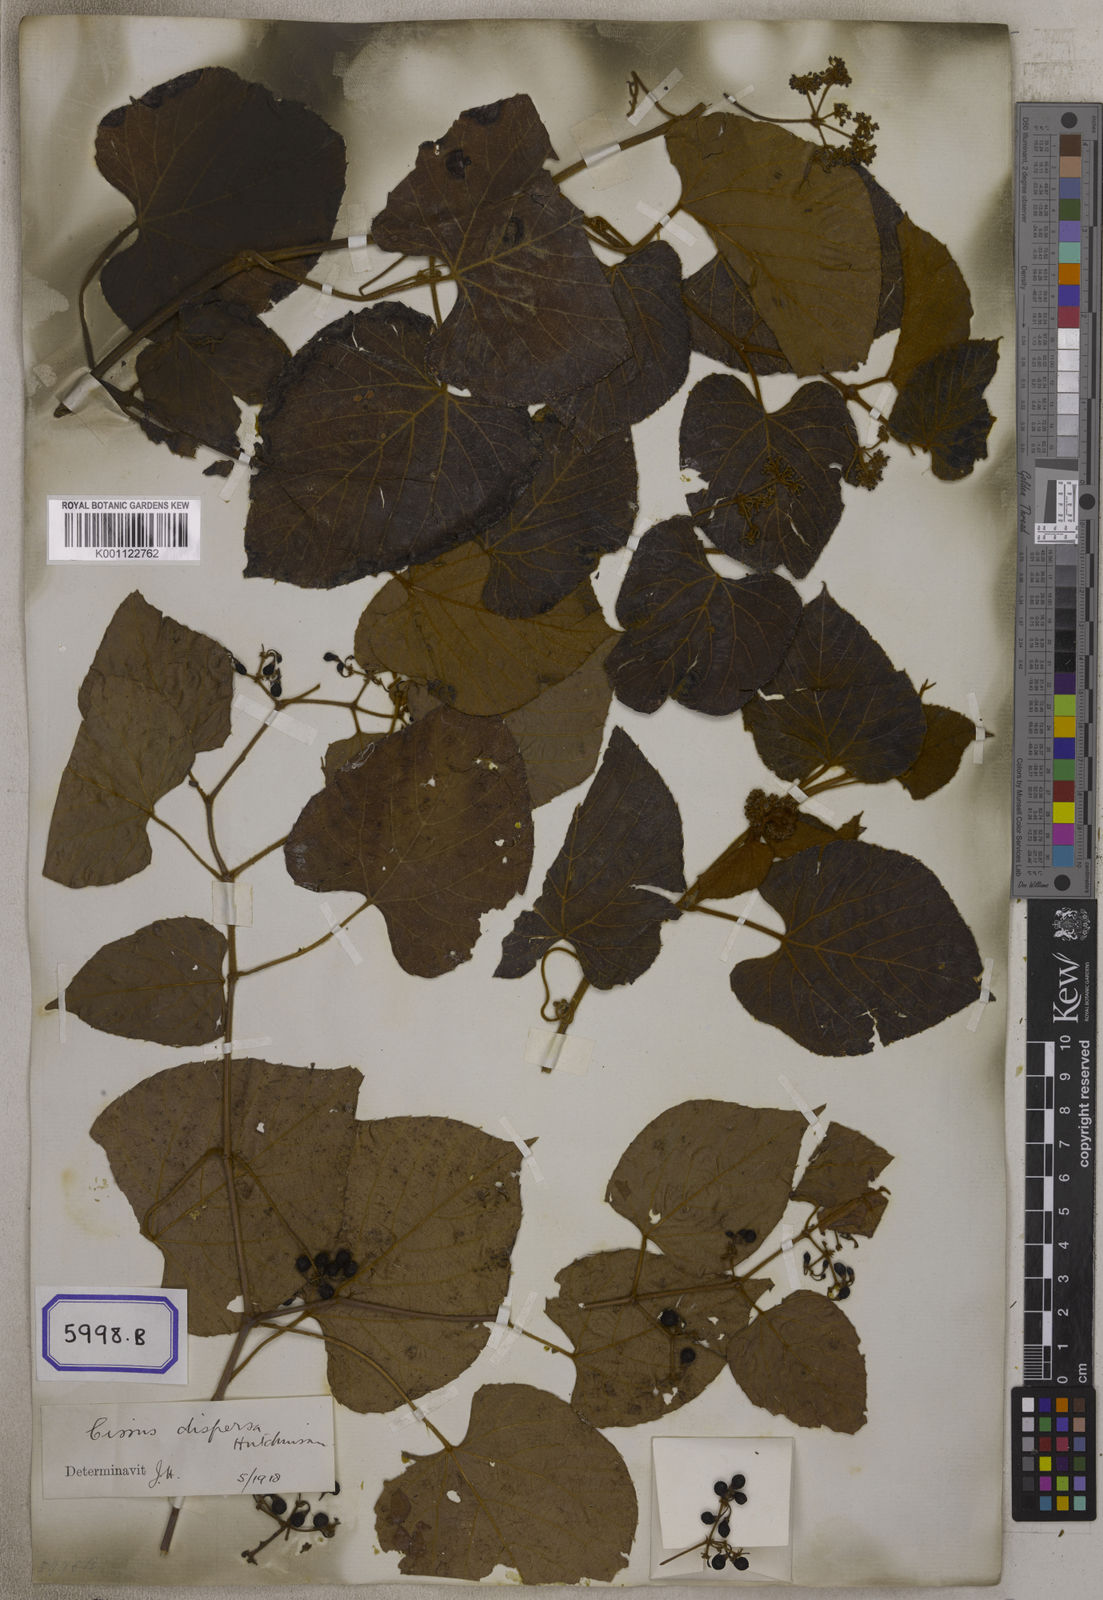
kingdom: Plantae
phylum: Tracheophyta
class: Magnoliopsida
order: Vitales
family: Vitaceae
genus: Cissus
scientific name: Cissus adnata
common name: Heart-leaf-grape
